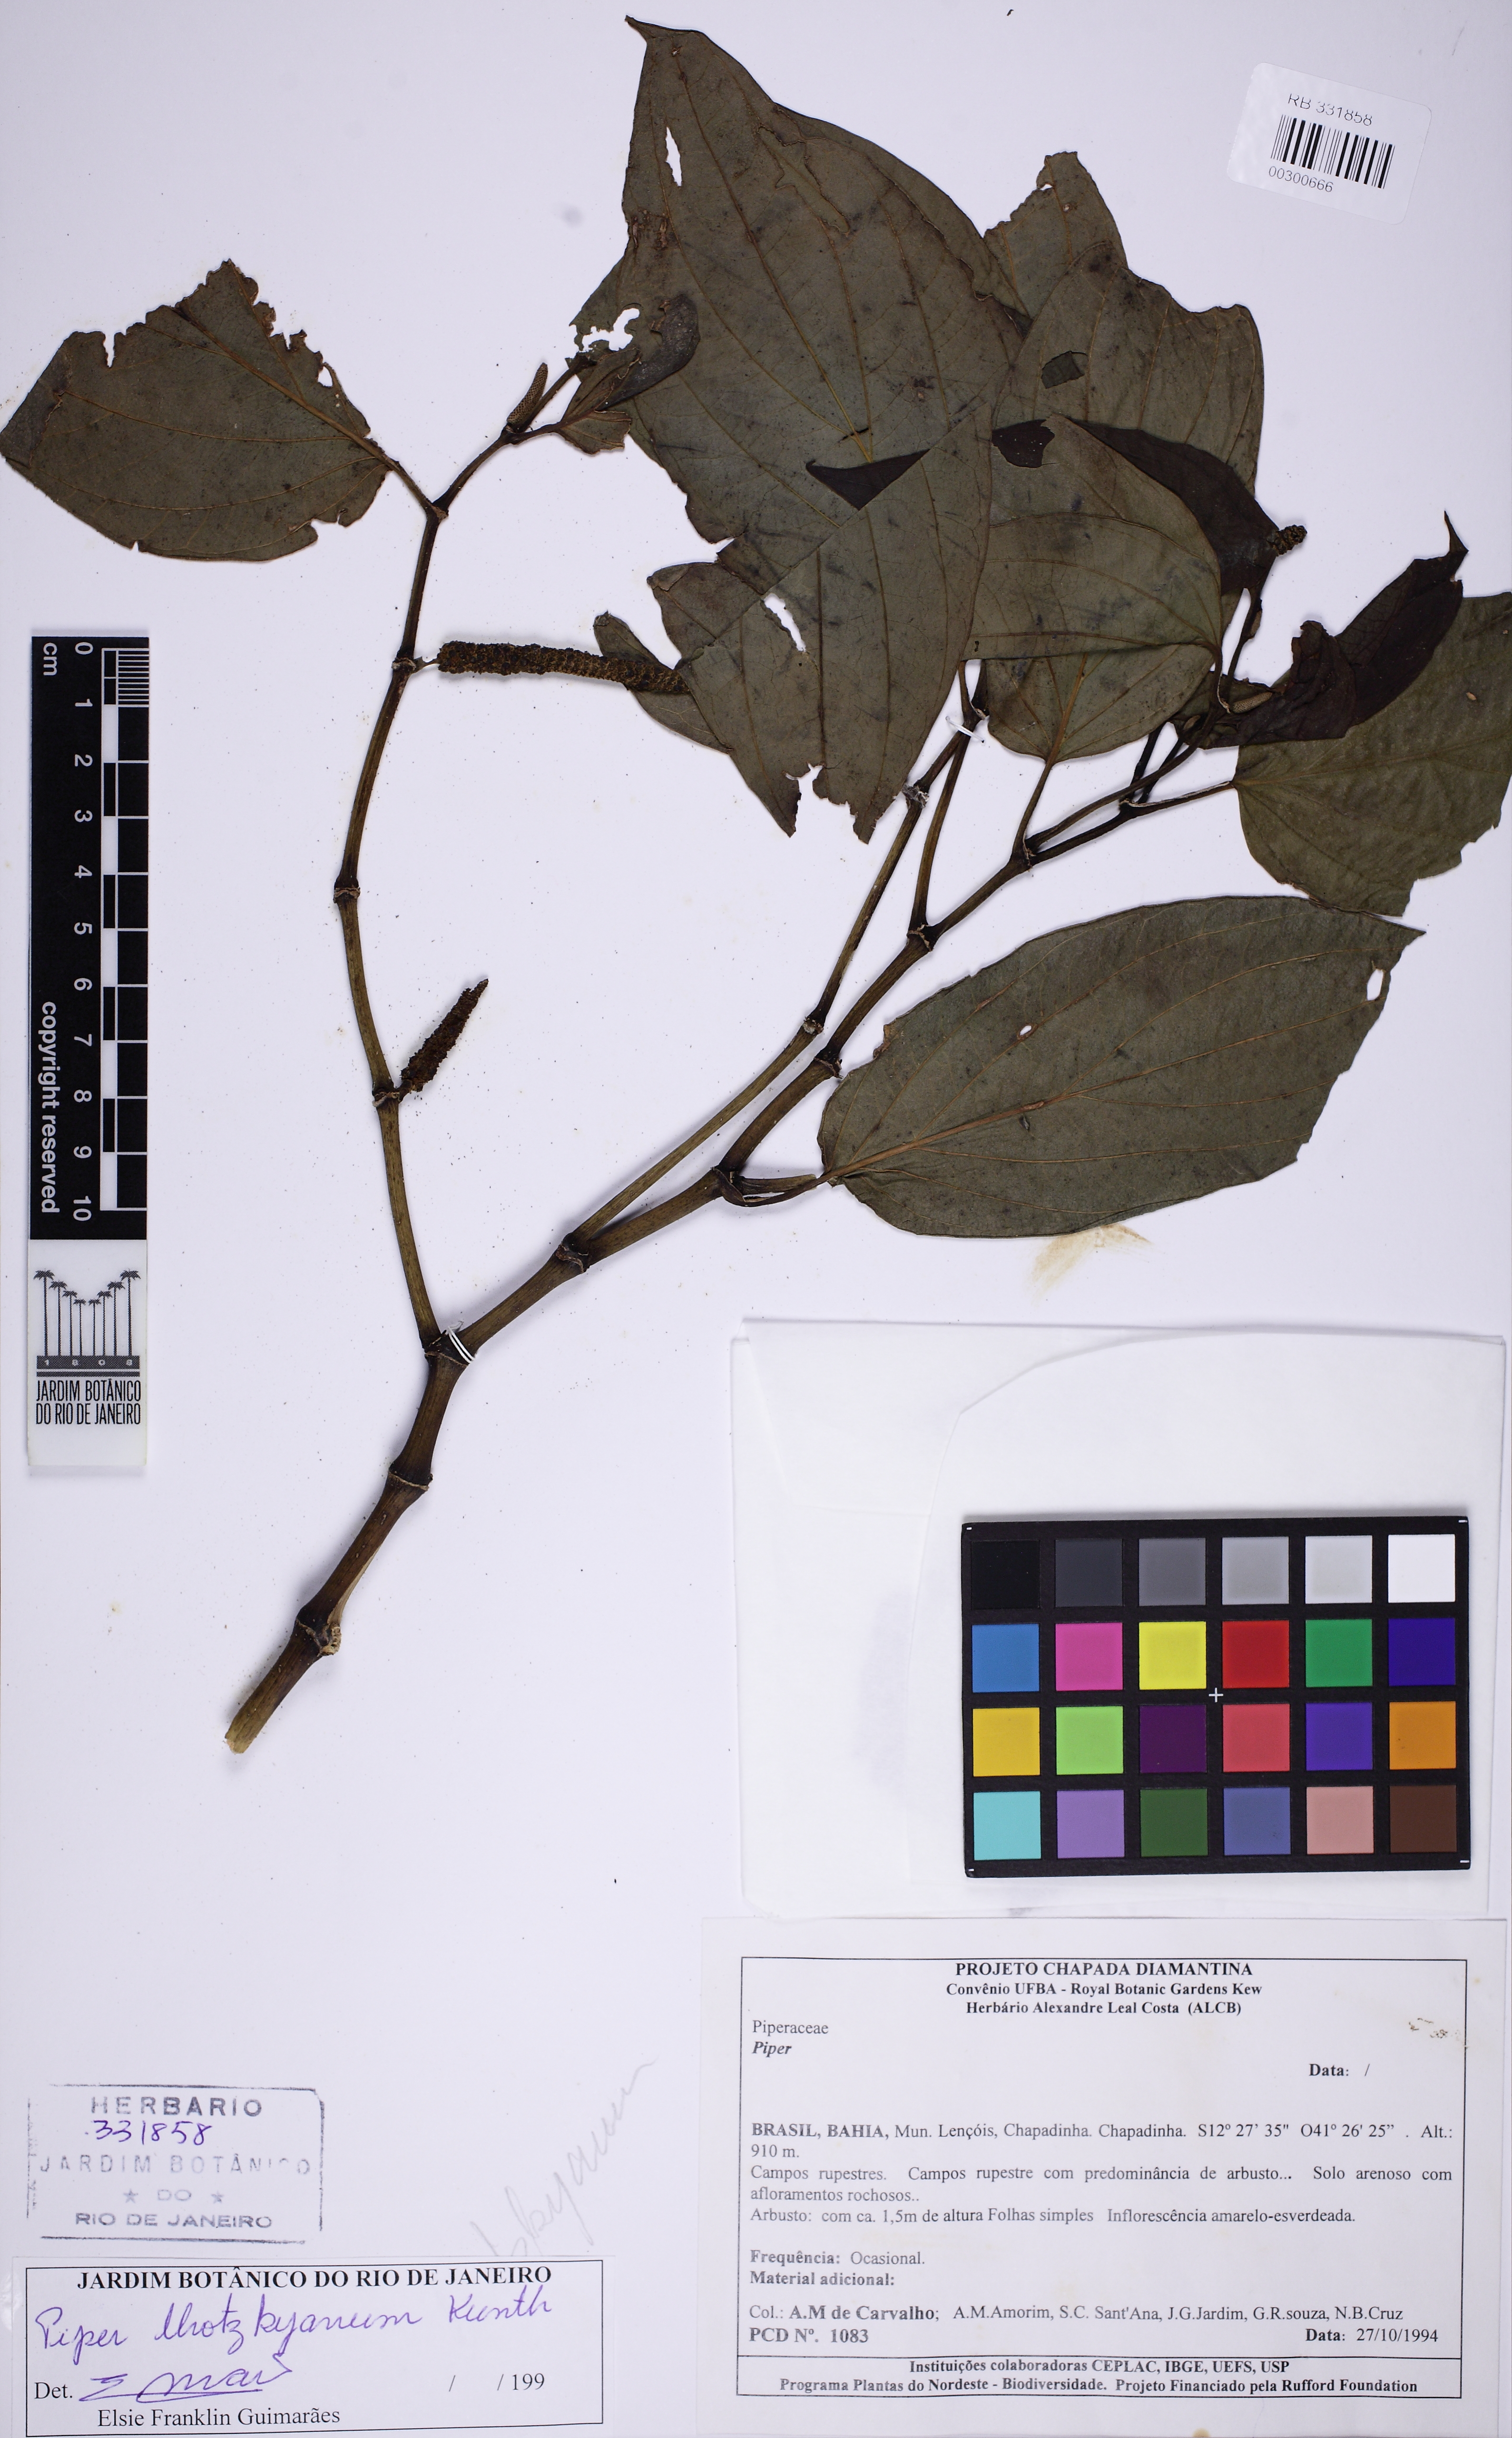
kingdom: Plantae
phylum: Tracheophyta
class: Magnoliopsida
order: Piperales
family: Piperaceae
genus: Piper
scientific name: Piper lhotzkyanum
